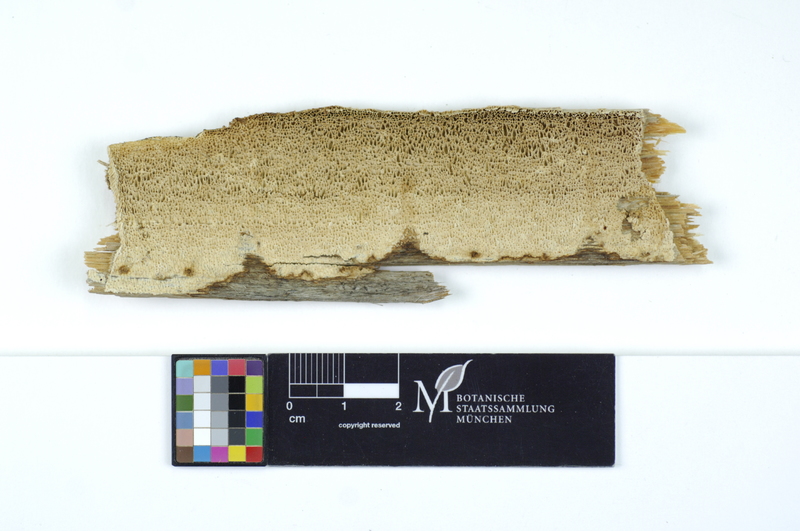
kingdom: Fungi
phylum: Basidiomycota
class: Agaricomycetes
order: Polyporales
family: Fomitopsidaceae
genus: Antrodia
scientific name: Antrodia sinuosa
